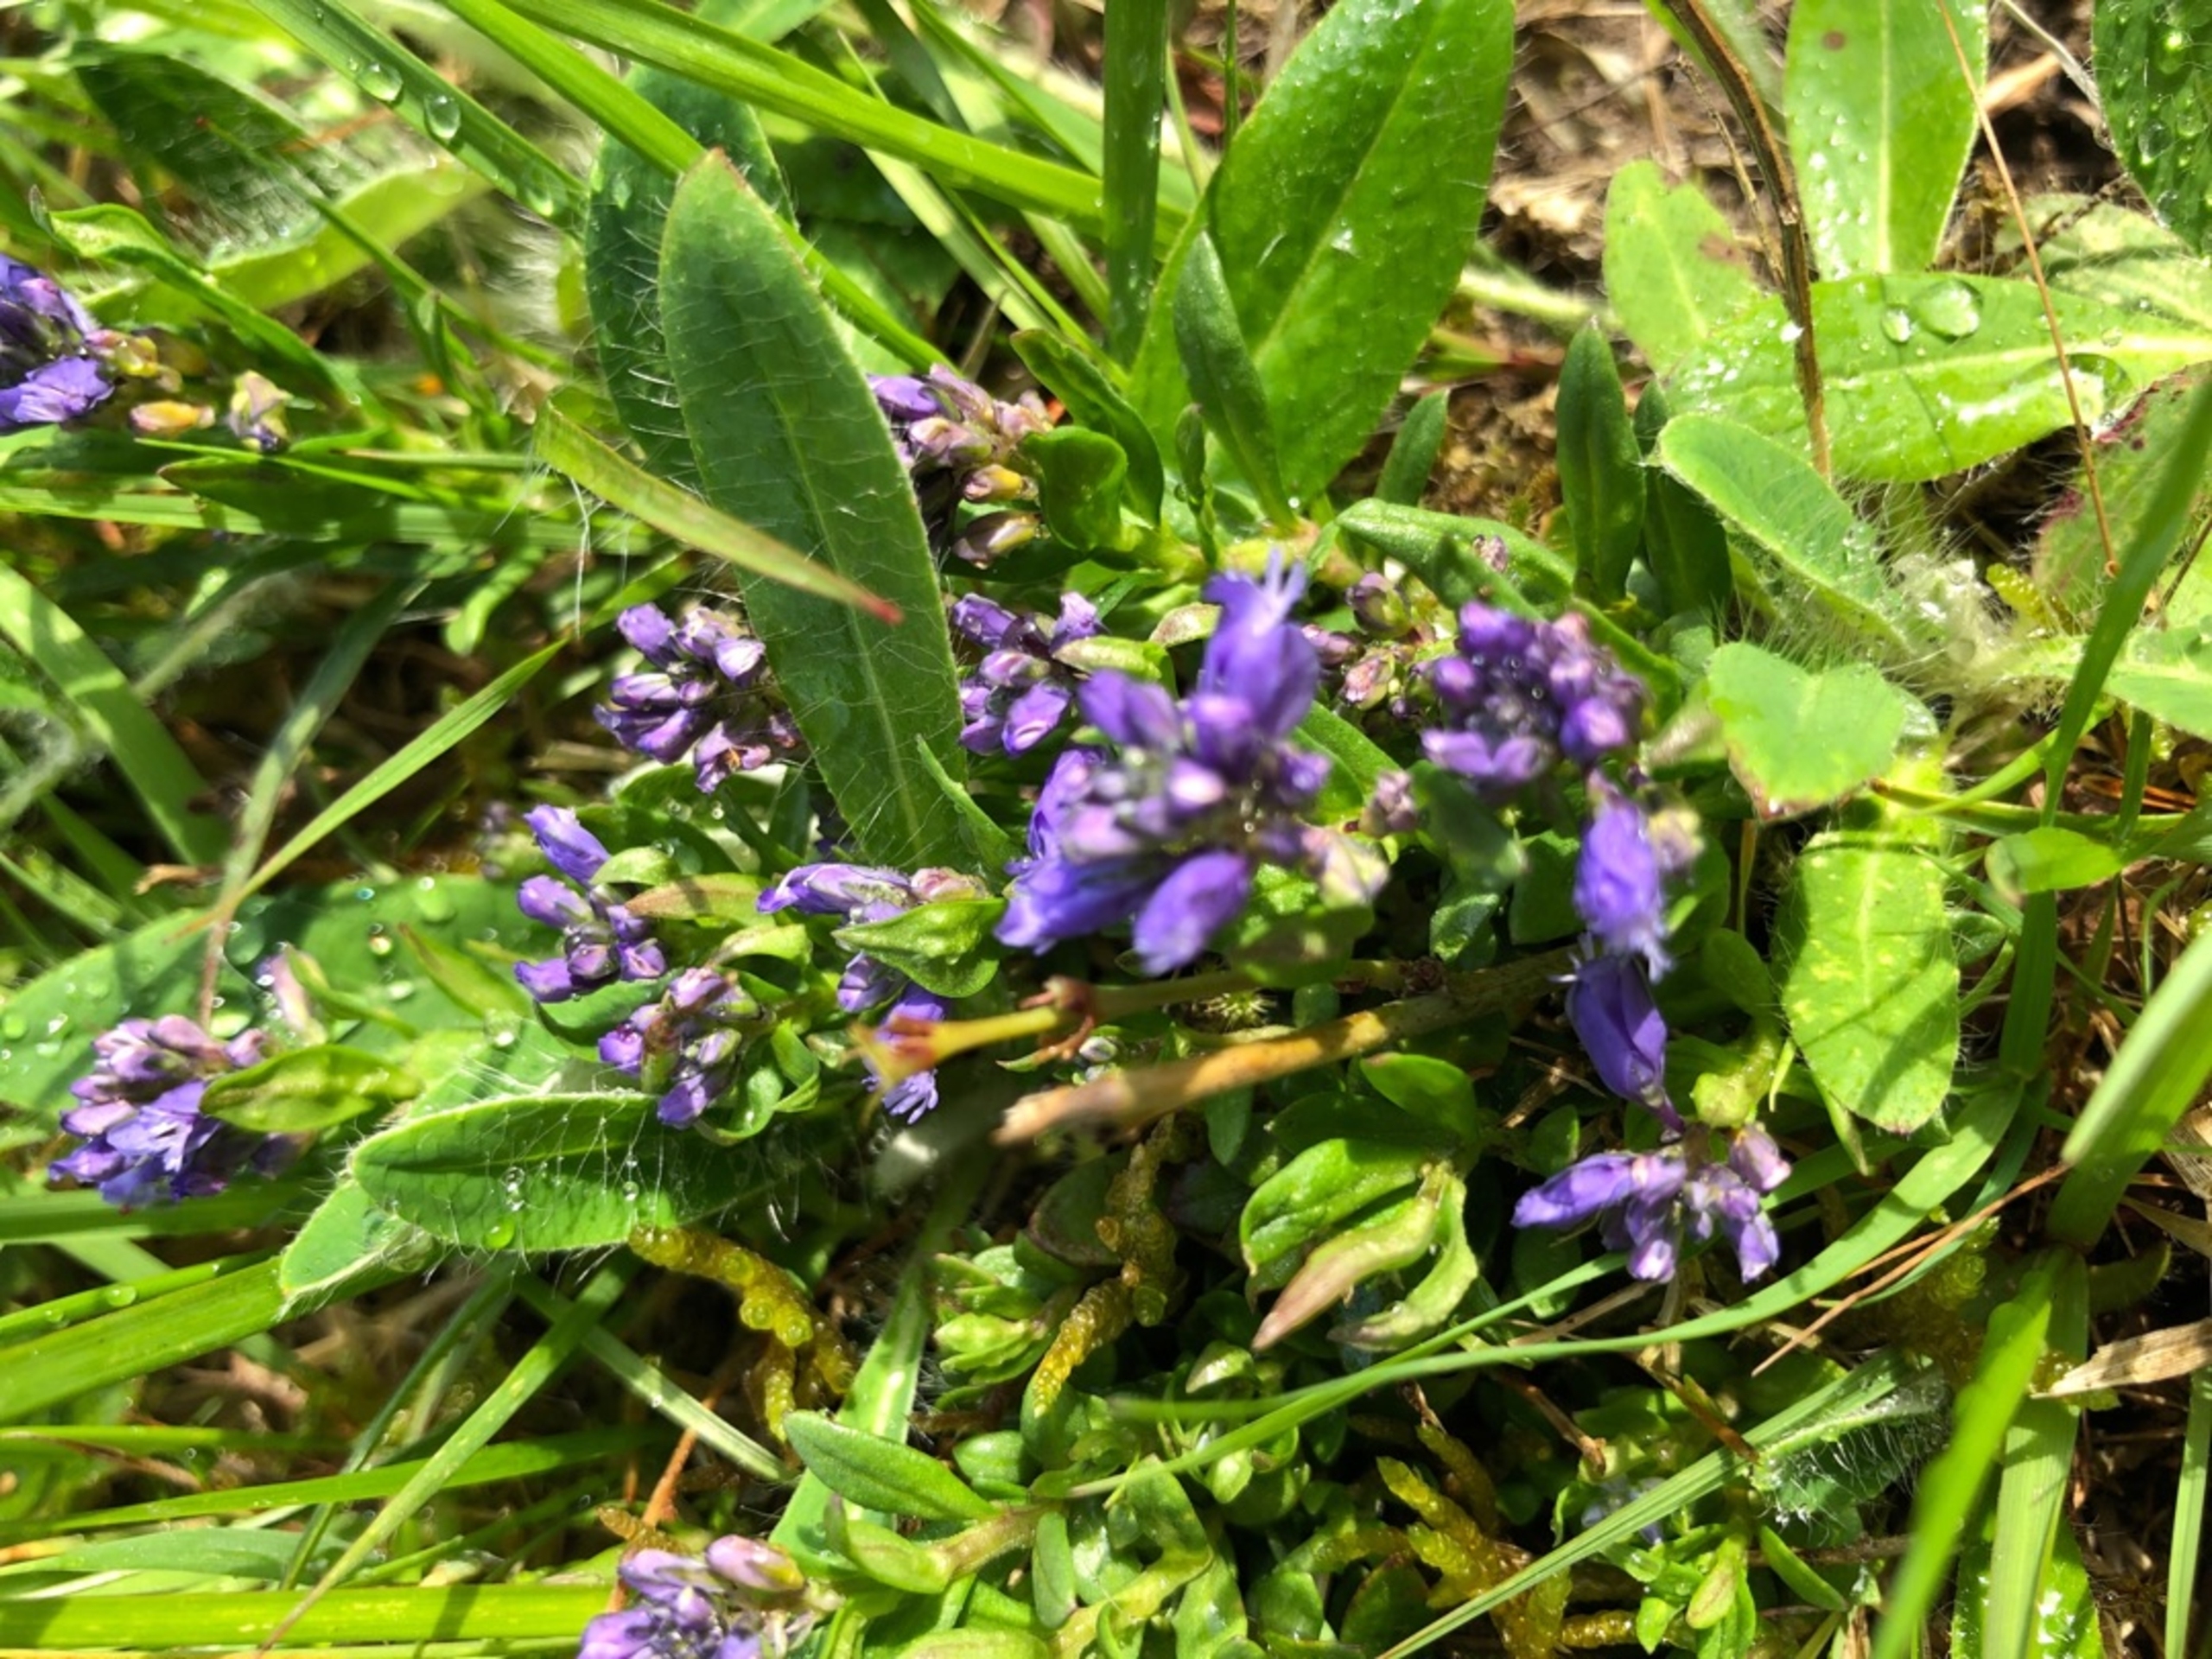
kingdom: Plantae
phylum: Tracheophyta
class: Magnoliopsida
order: Fabales
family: Polygalaceae
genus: Polygala
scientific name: Polygala vulgaris
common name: Almindelig mælkeurt
